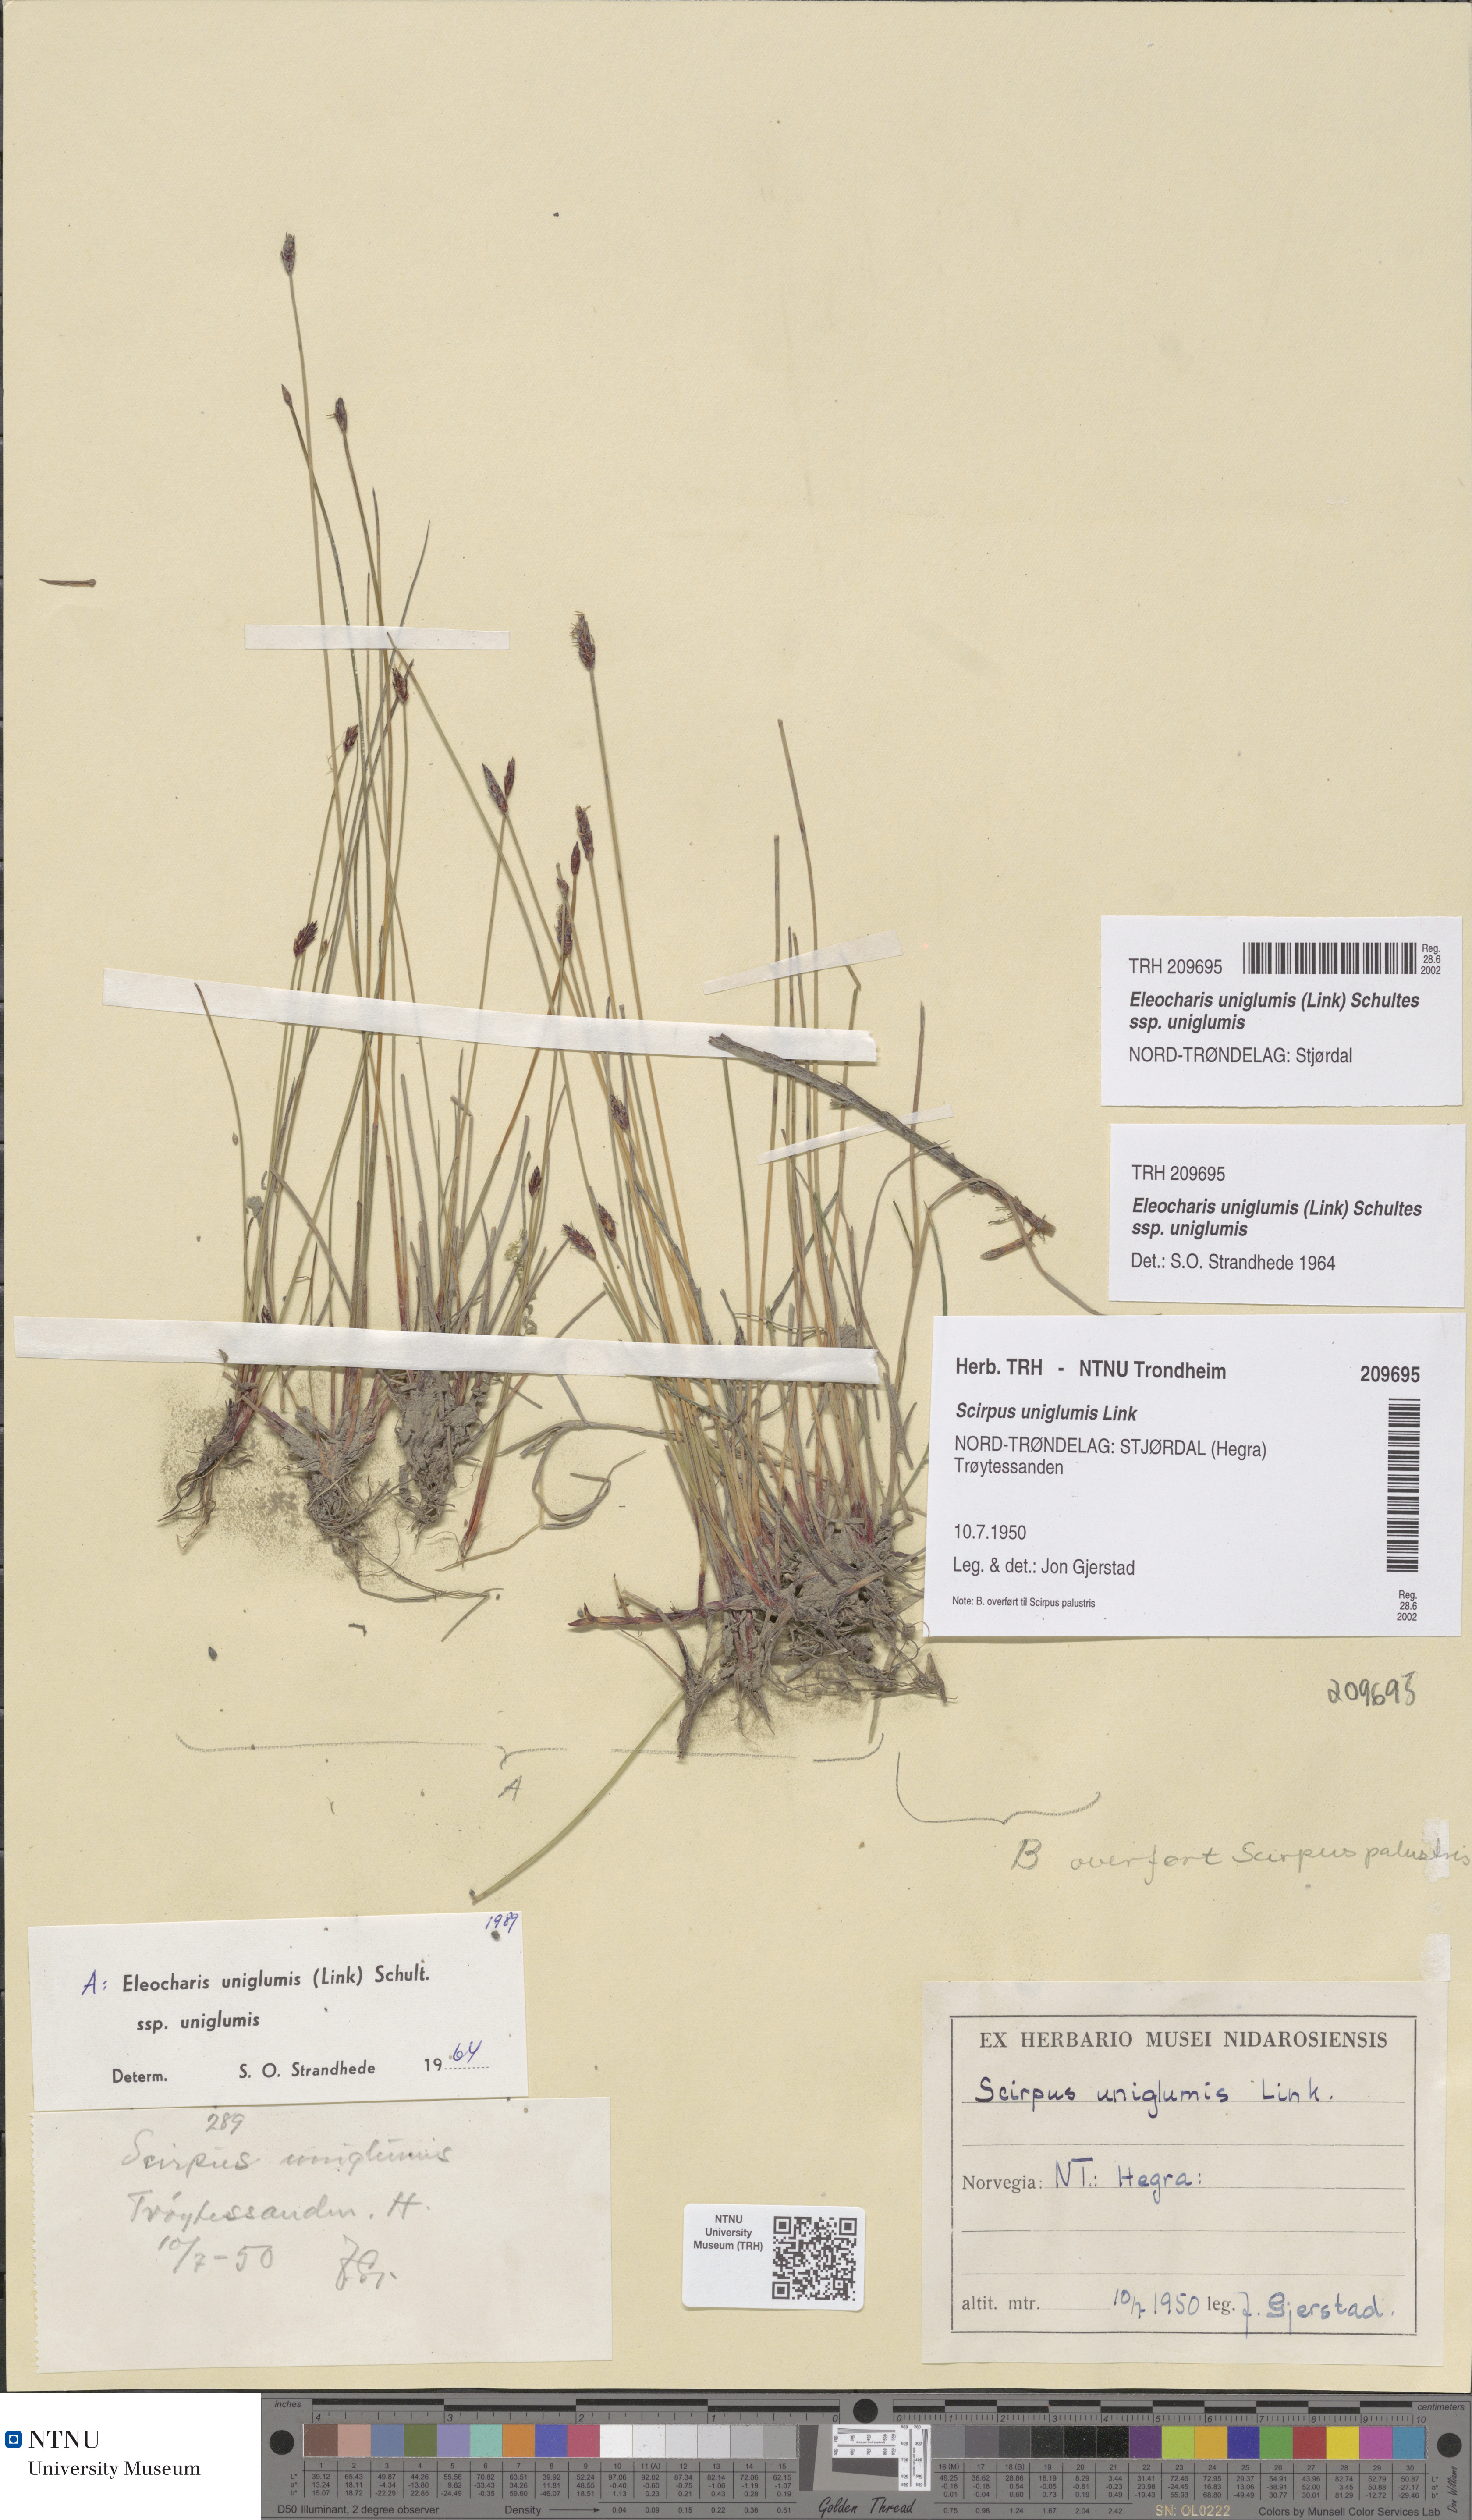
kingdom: Plantae
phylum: Tracheophyta
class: Liliopsida
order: Poales
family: Cyperaceae
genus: Eleocharis
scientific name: Eleocharis uniglumis
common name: Slender spike-rush
